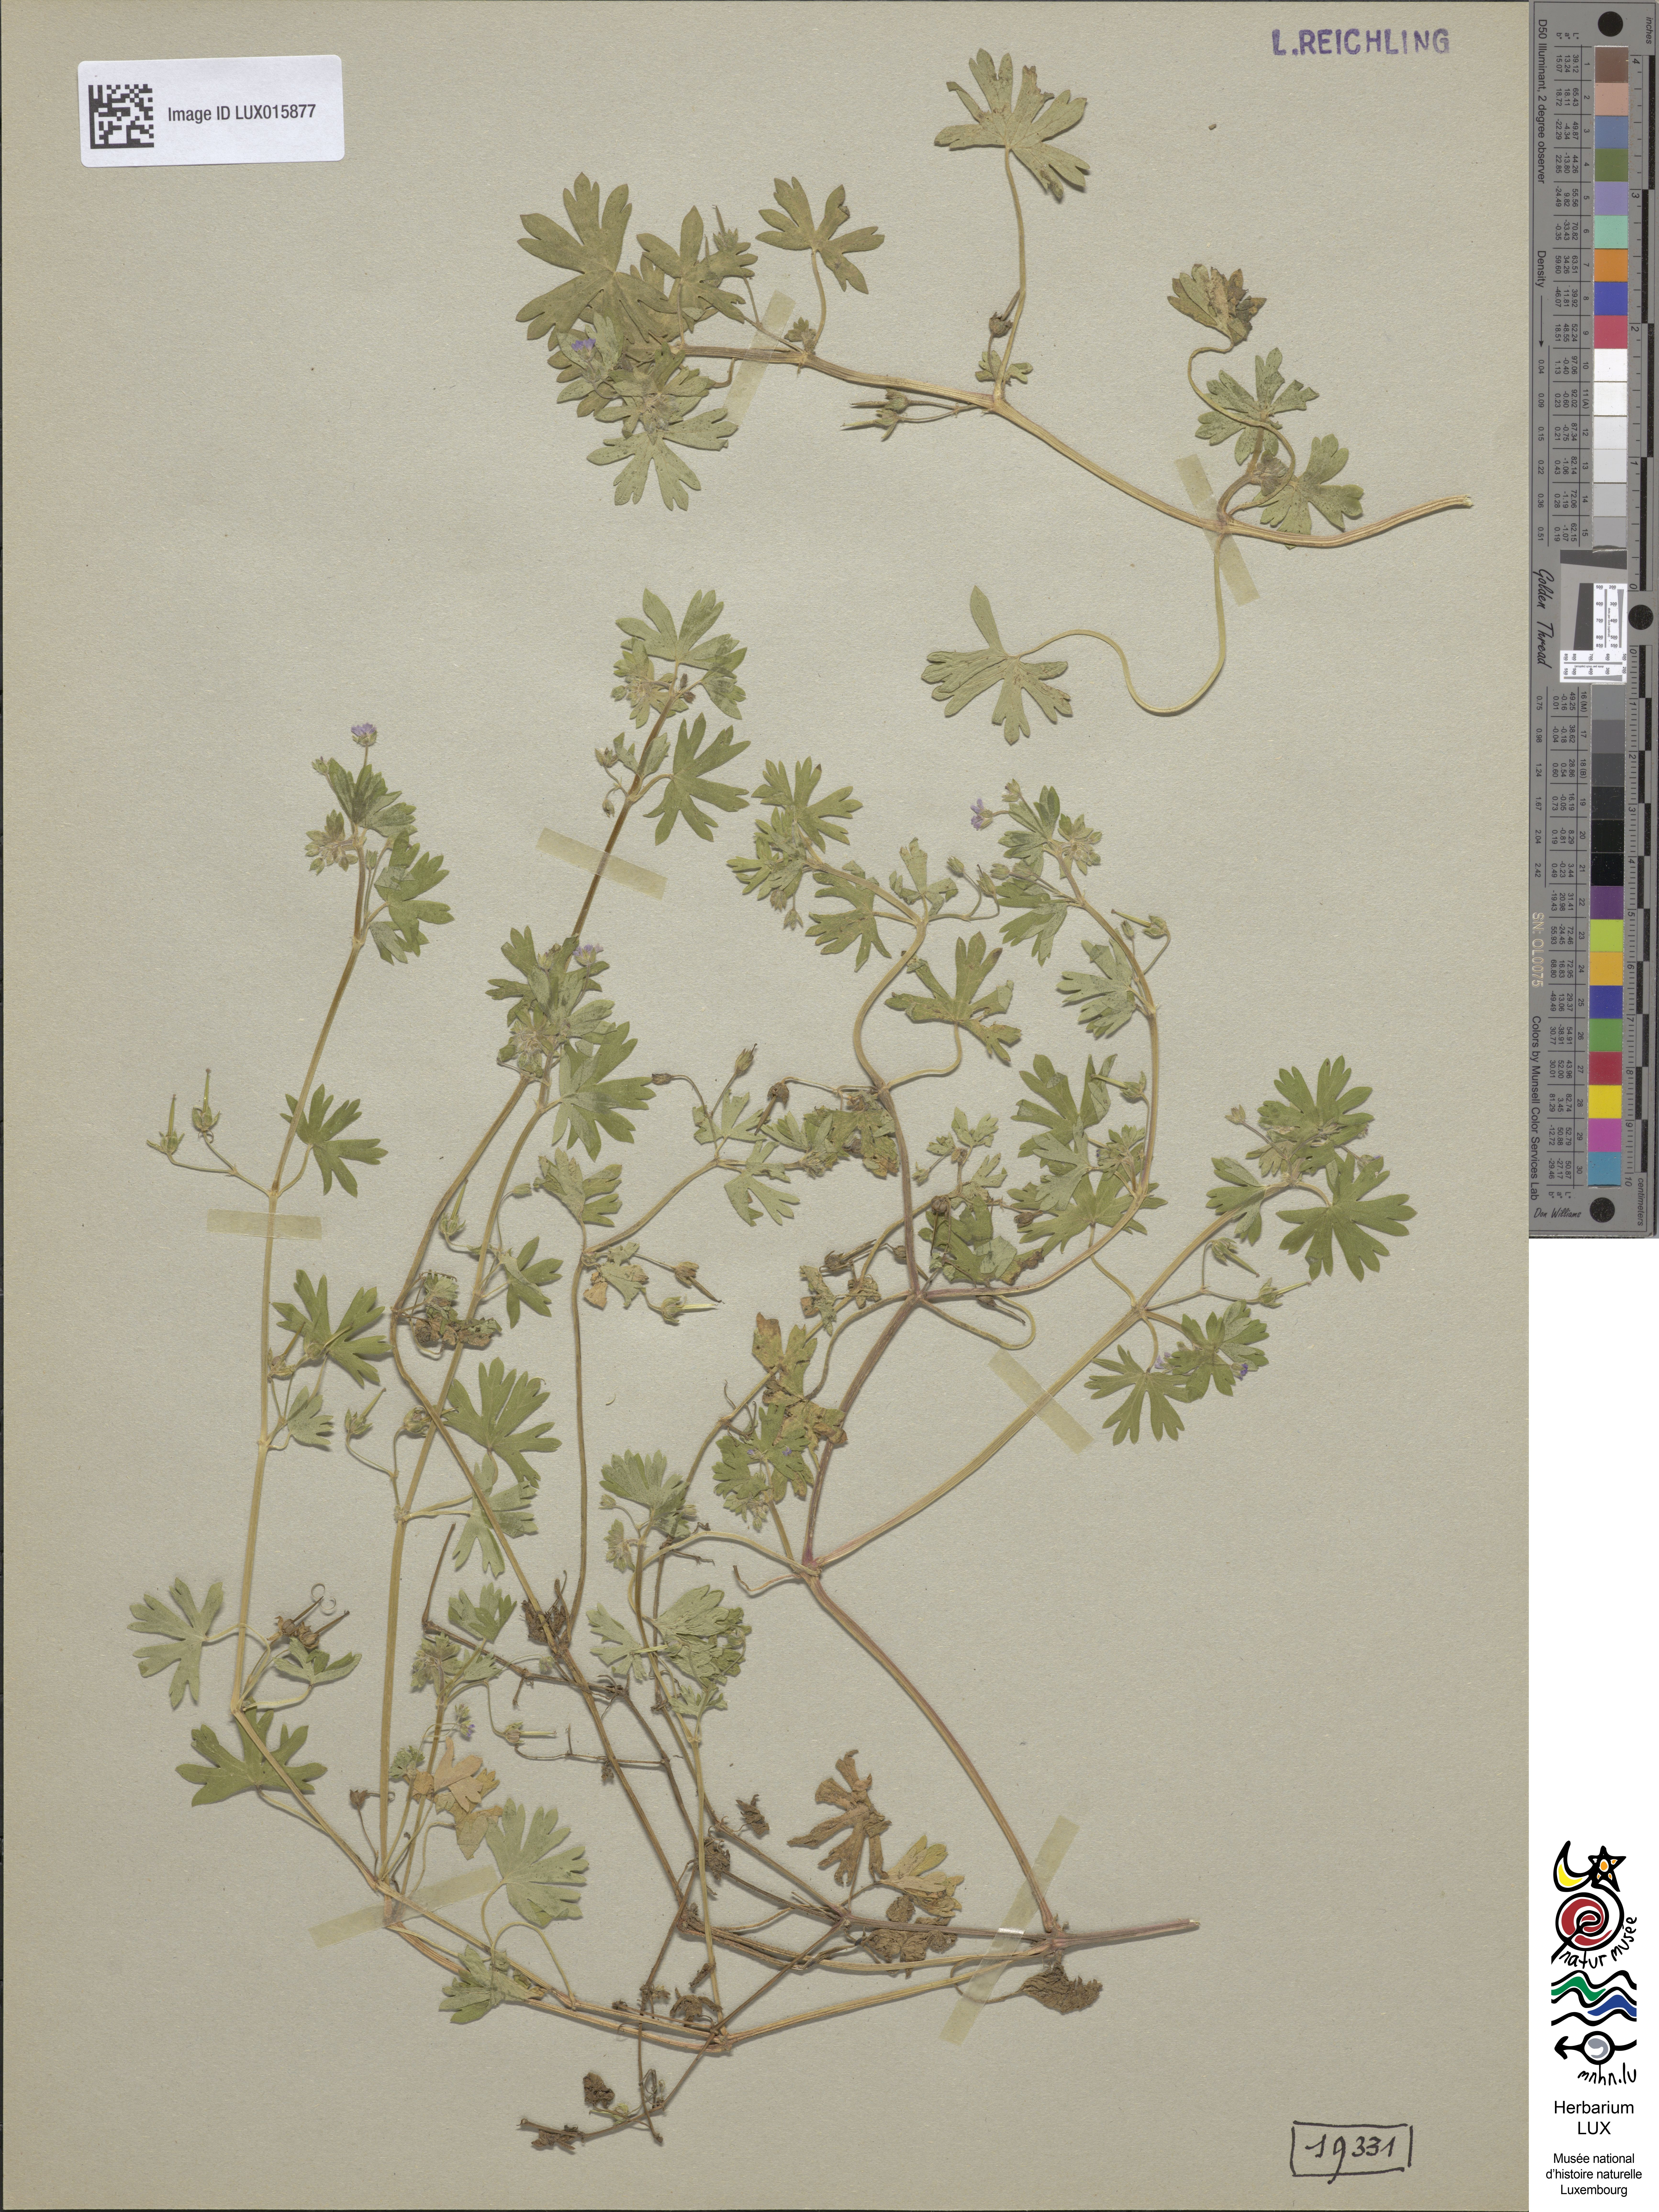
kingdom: Plantae
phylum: Tracheophyta
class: Magnoliopsida
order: Geraniales
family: Geraniaceae
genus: Geranium
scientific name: Geranium pusillum
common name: Small geranium
